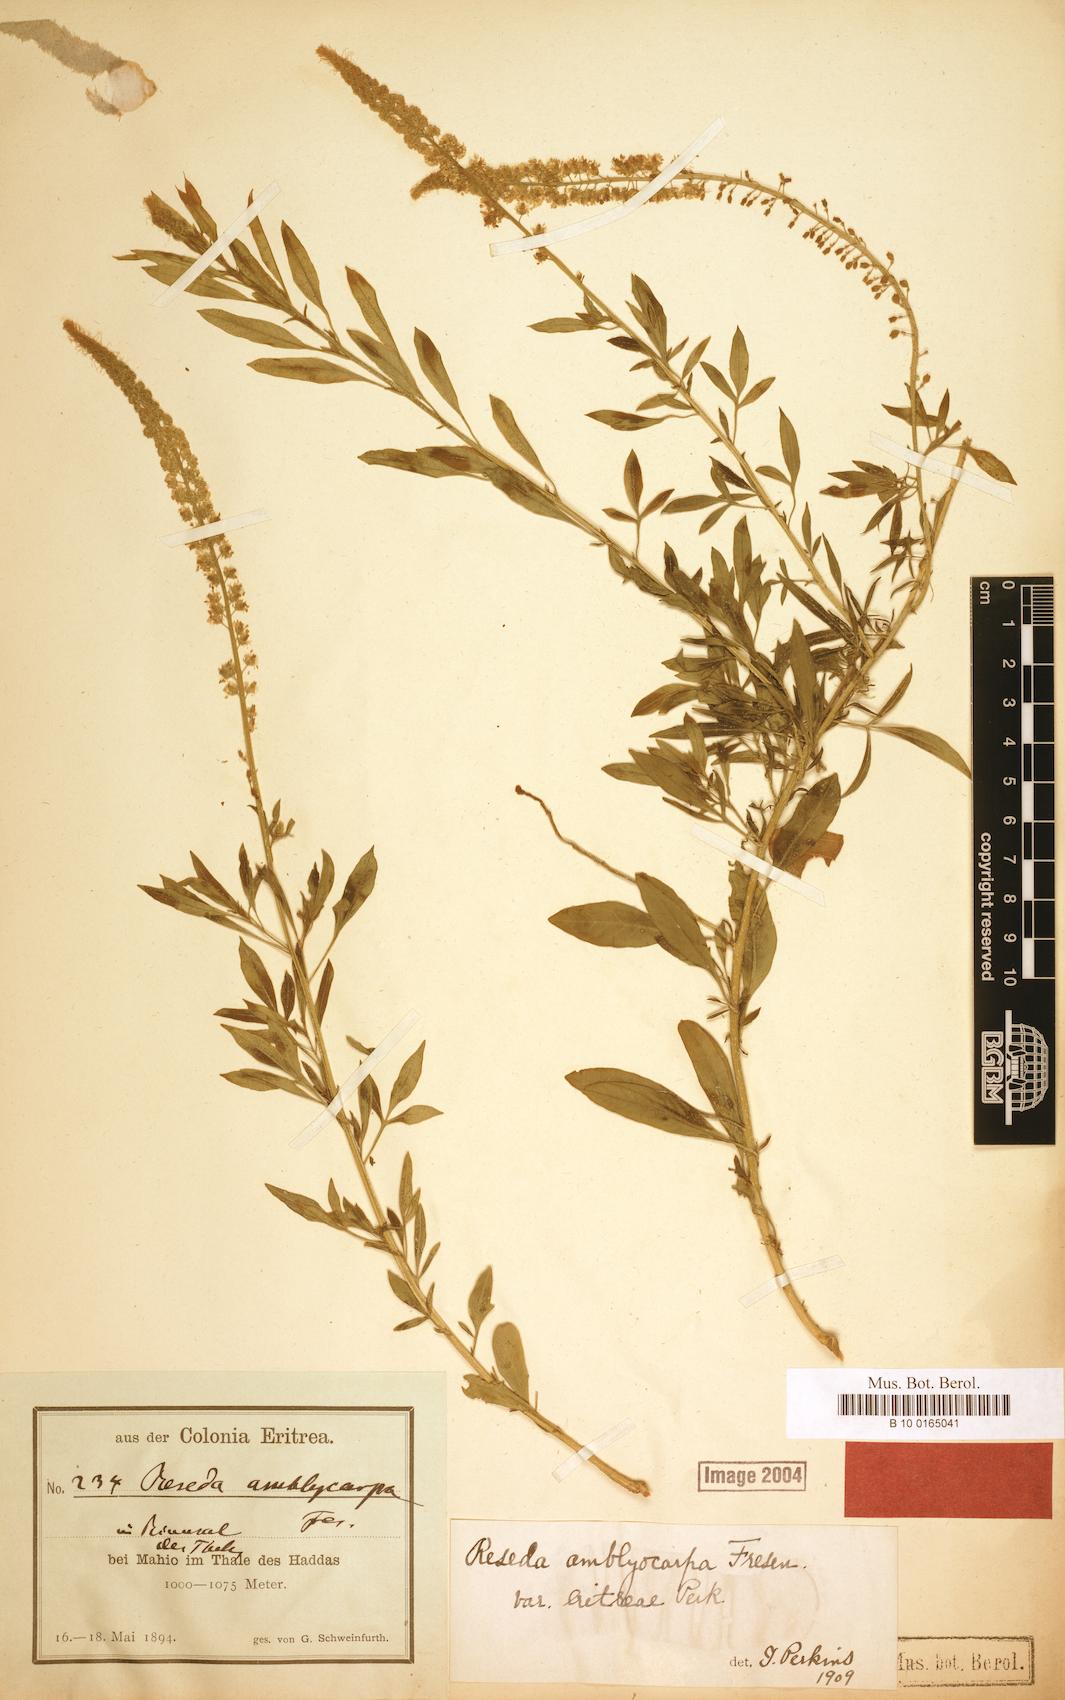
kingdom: Plantae
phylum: Tracheophyta
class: Magnoliopsida
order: Brassicales
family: Resedaceae
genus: Reseda
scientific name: Reseda amblycarpa
